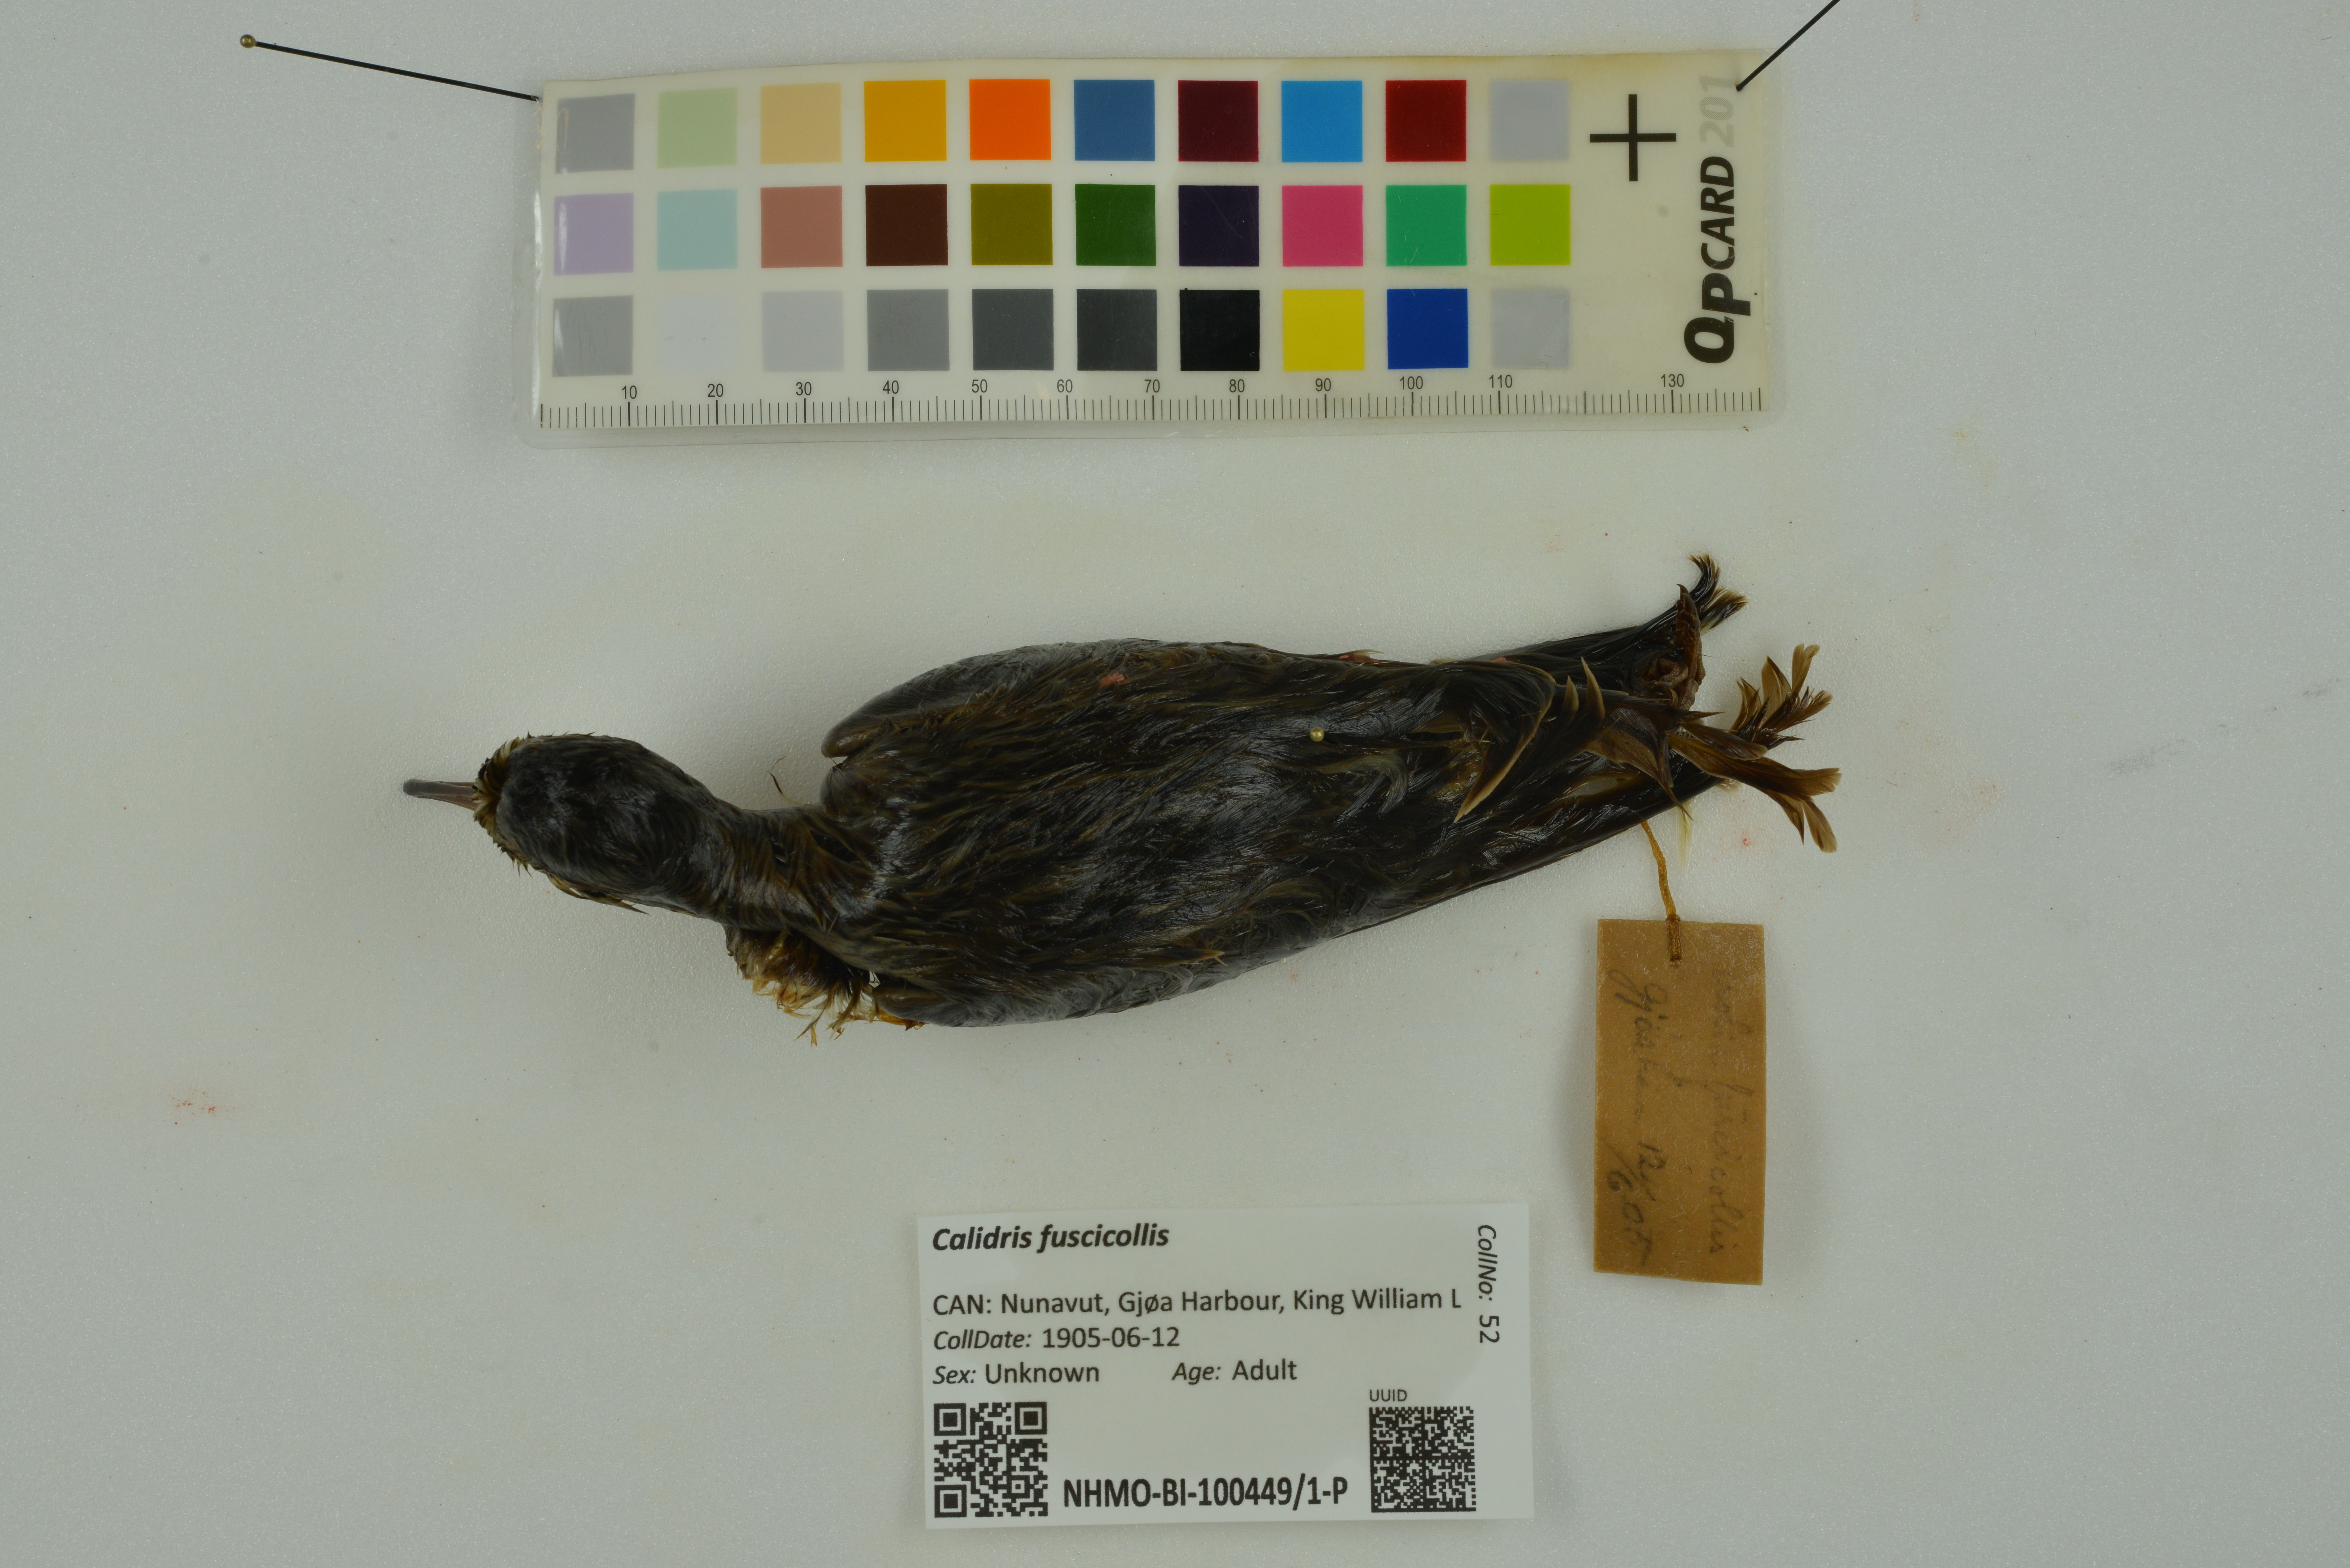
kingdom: Animalia
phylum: Chordata
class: Aves
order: Charadriiformes
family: Scolopacidae
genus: Calidris
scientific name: Calidris fuscicollis
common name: White-rumped sandpiper
